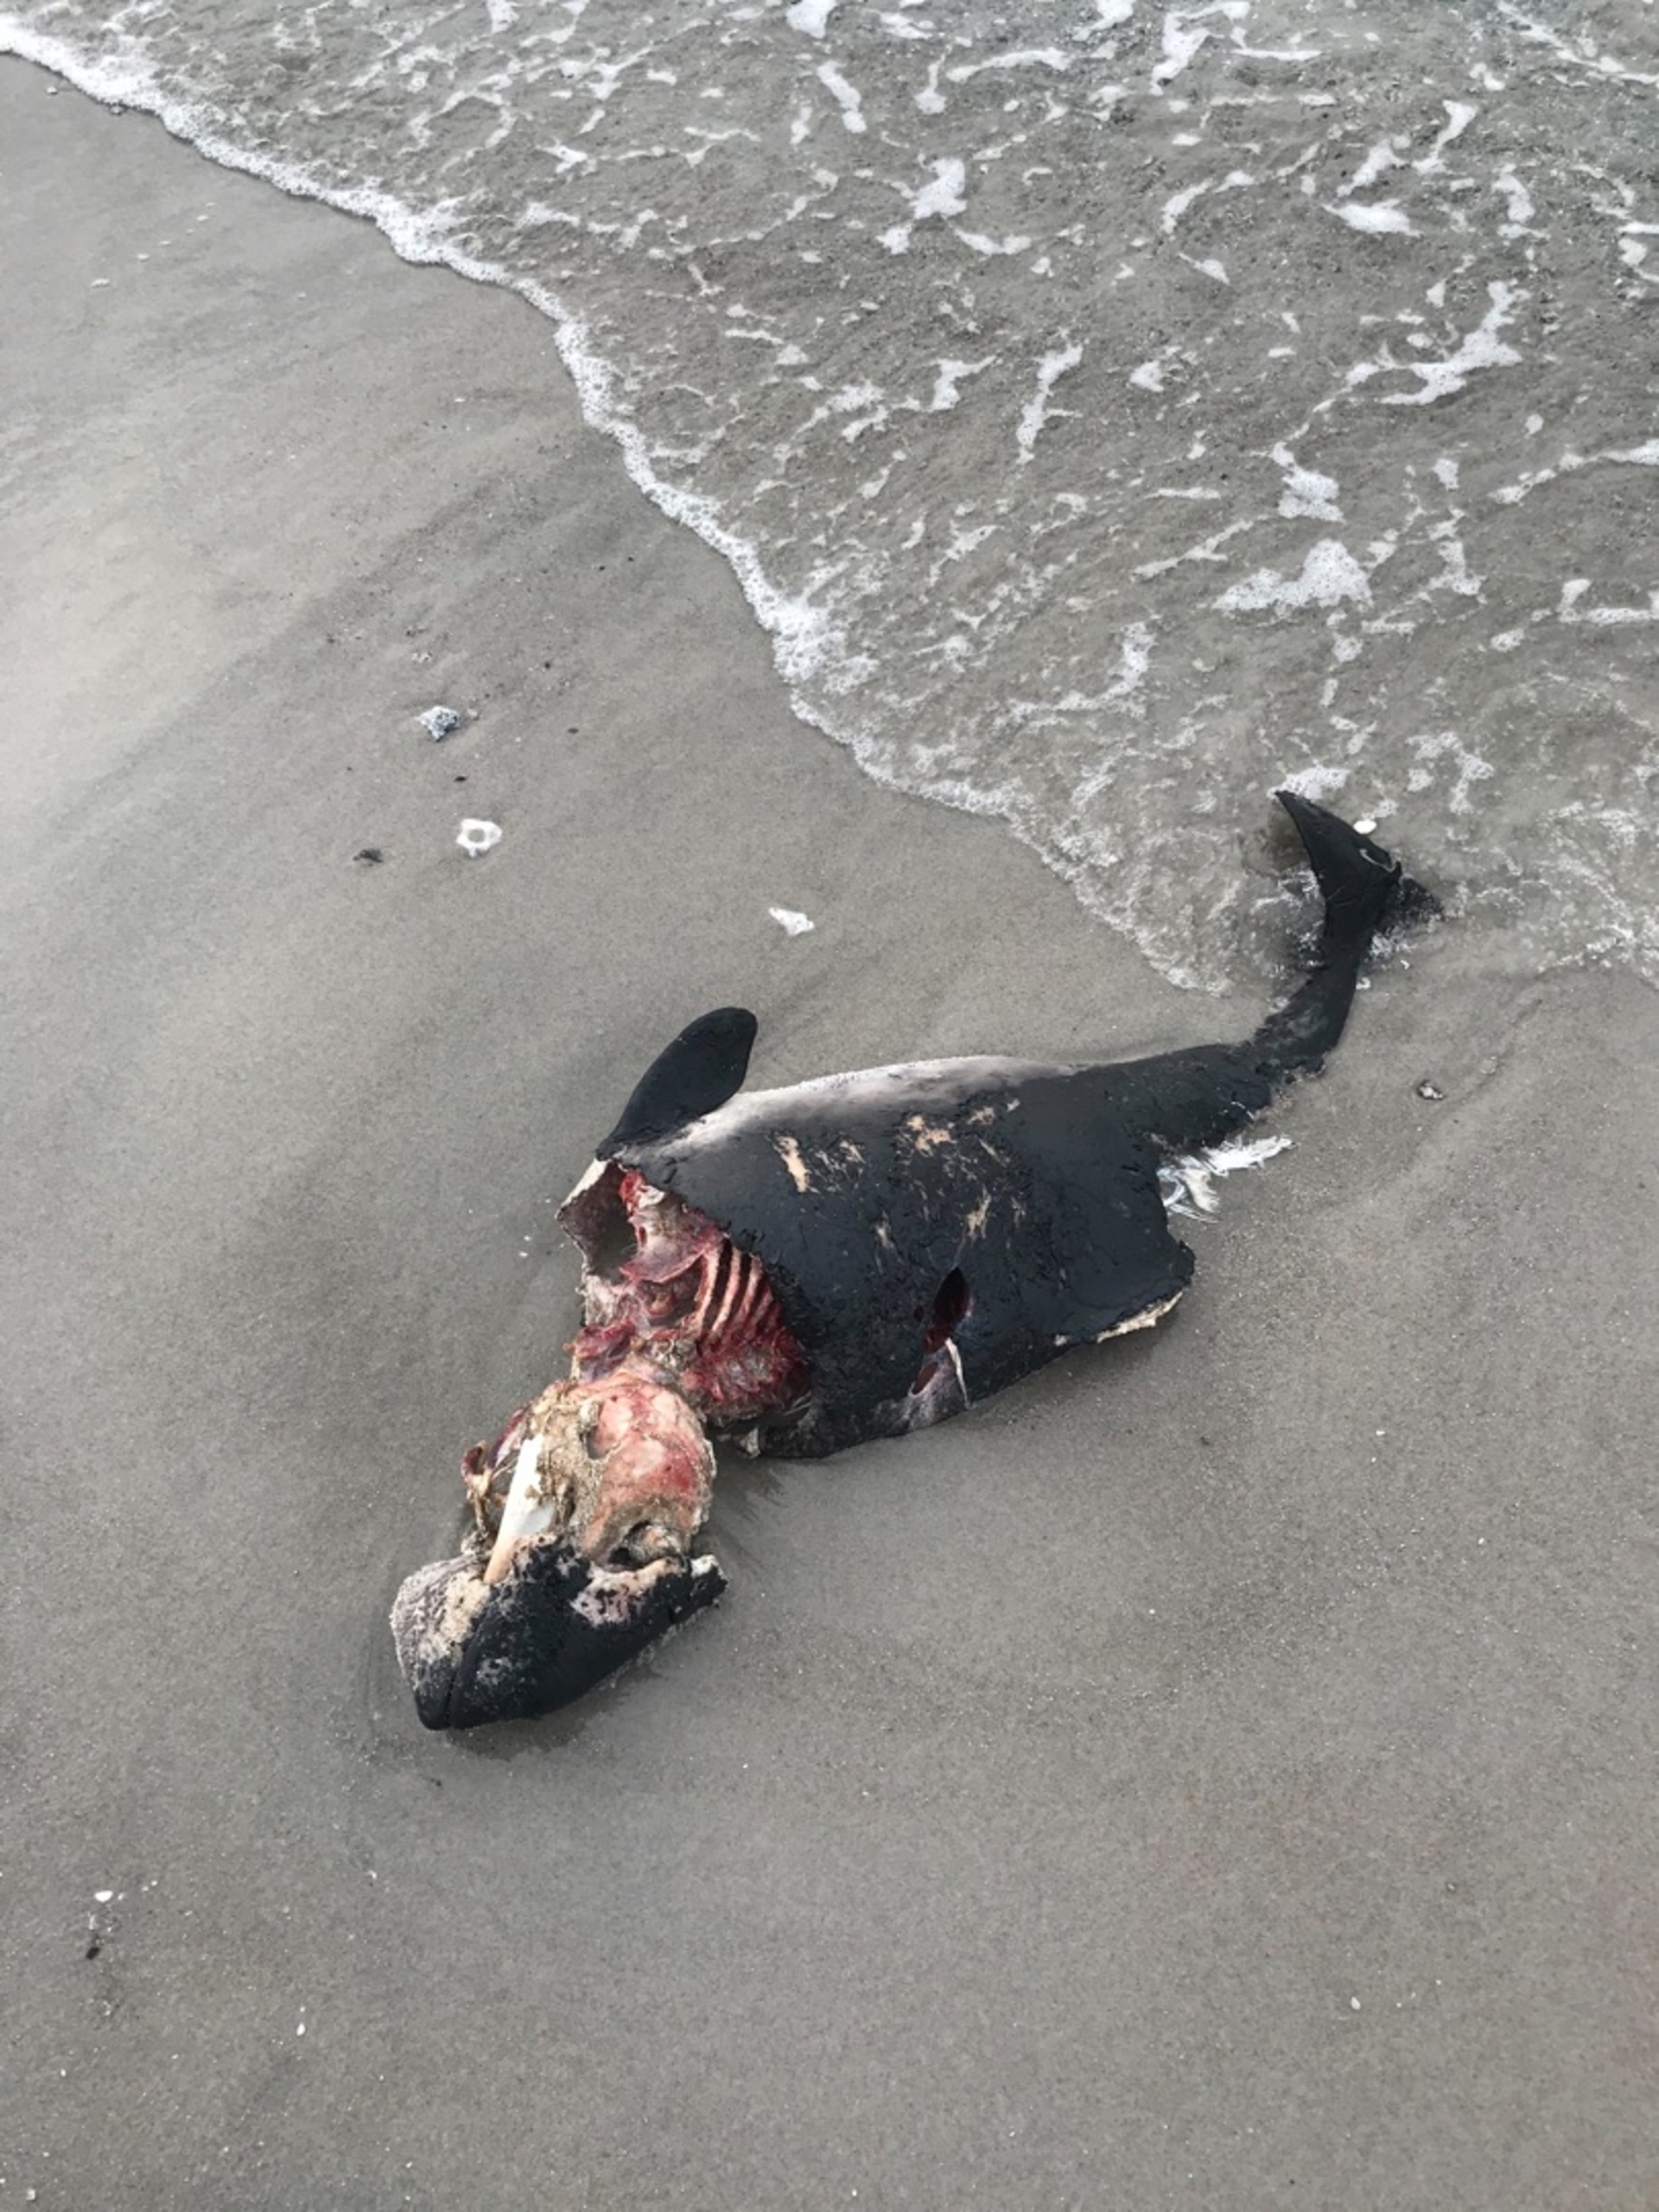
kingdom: Animalia
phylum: Chordata
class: Mammalia
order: Cetacea
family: Phocoenidae
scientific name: Phocoenidae
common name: Marsvin
